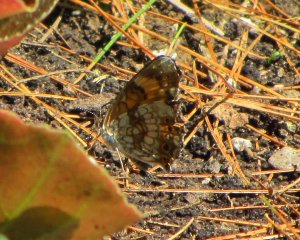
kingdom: Animalia
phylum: Arthropoda
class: Insecta
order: Lepidoptera
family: Nymphalidae
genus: Chlosyne
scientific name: Chlosyne nycteis
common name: Silvery Checkerspot
